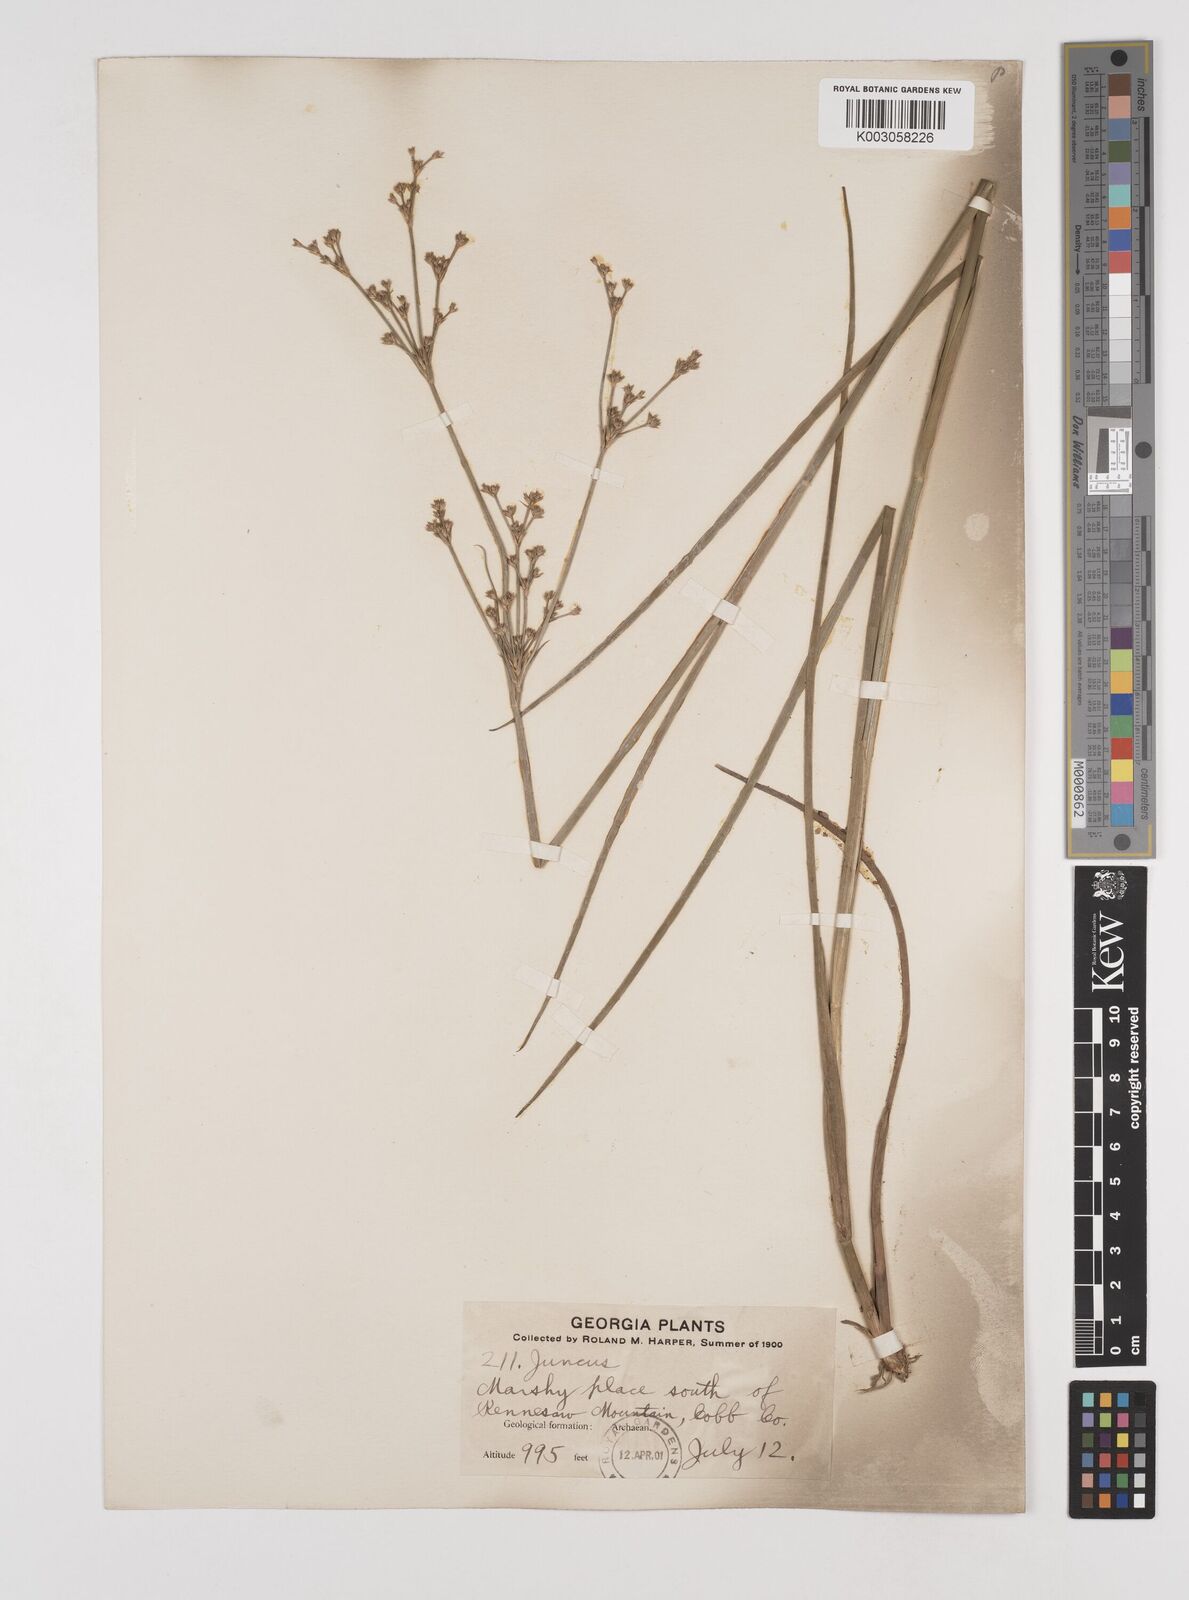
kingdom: Plantae
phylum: Tracheophyta
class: Liliopsida
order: Poales
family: Juncaceae
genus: Juncus
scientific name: Juncus
